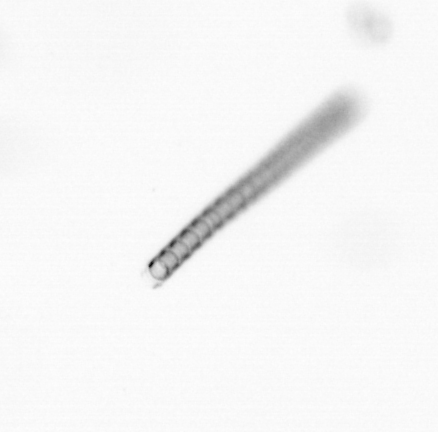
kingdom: Chromista
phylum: Ochrophyta
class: Bacillariophyceae
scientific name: Bacillariophyceae
